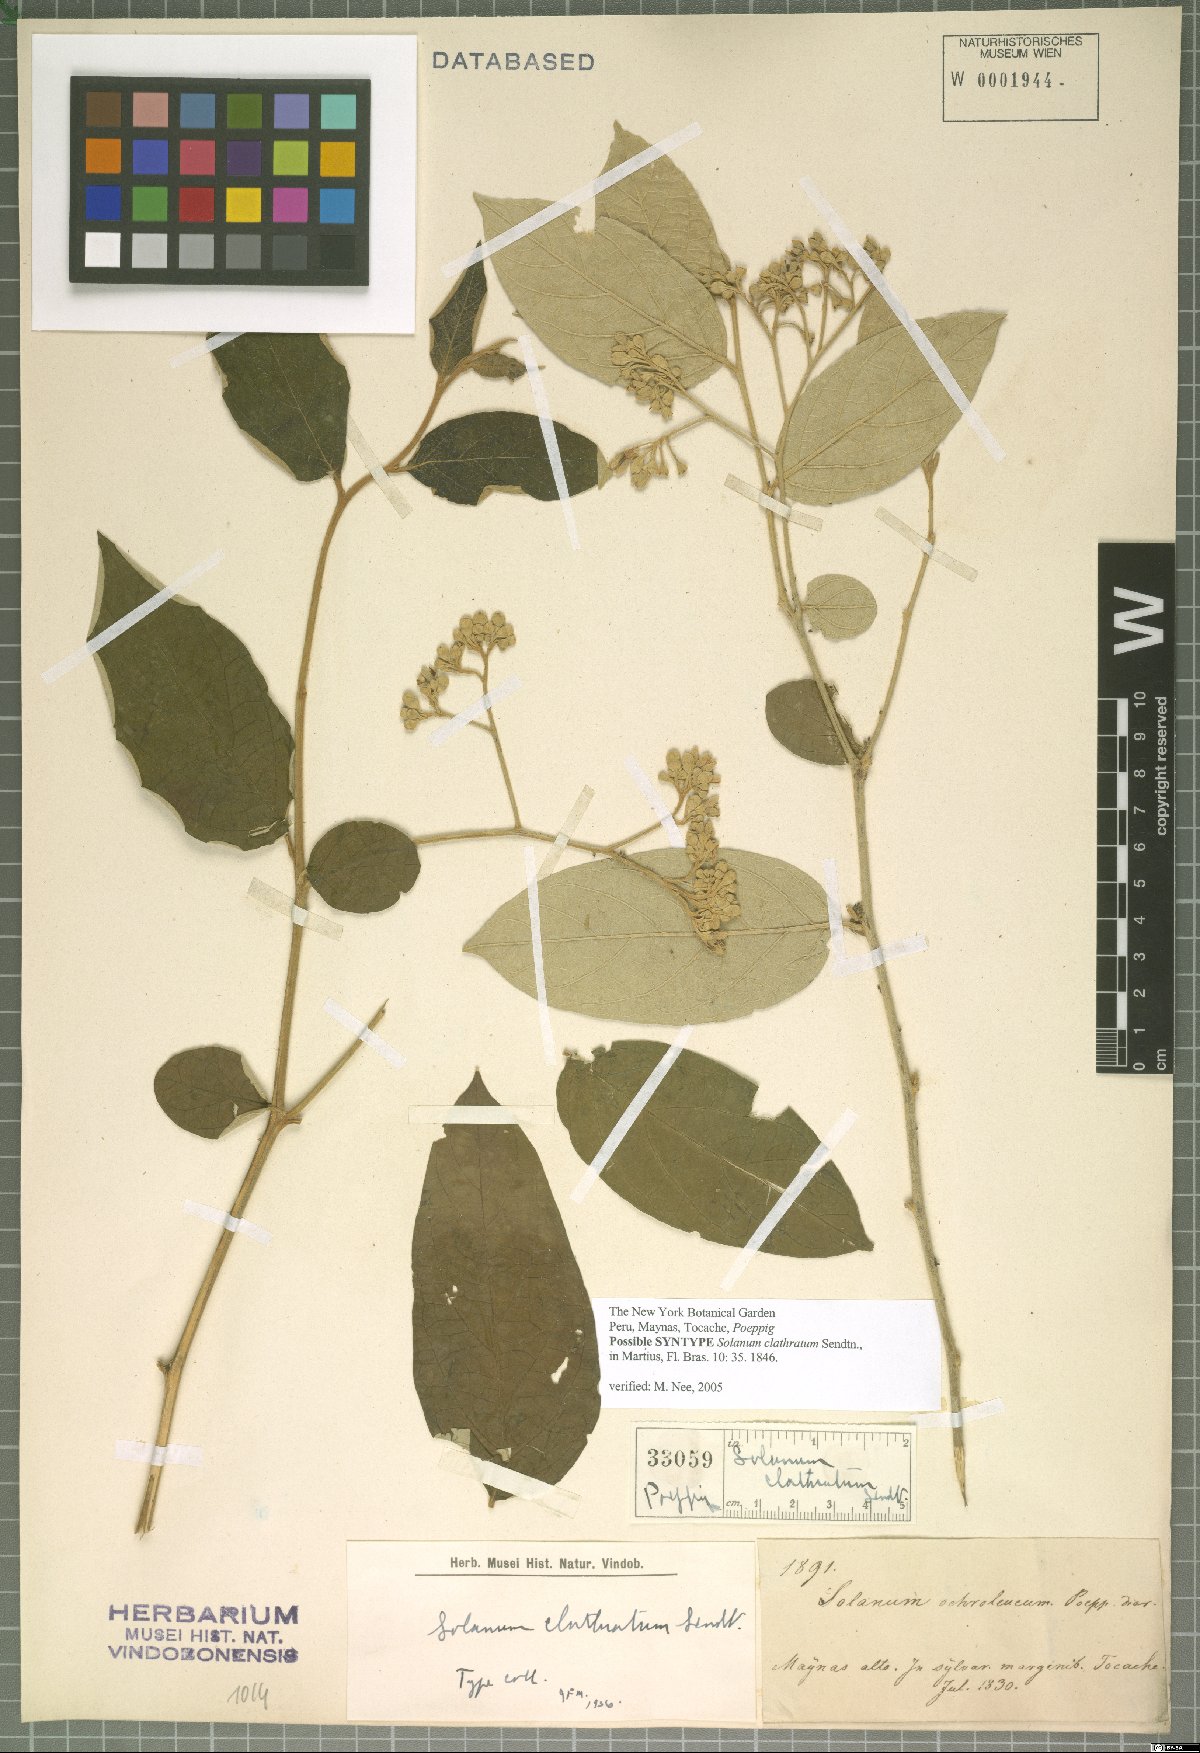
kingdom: Plantae
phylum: Tracheophyta
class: Magnoliopsida
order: Solanales
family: Solanaceae
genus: Solanum
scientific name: Solanum clathratum
